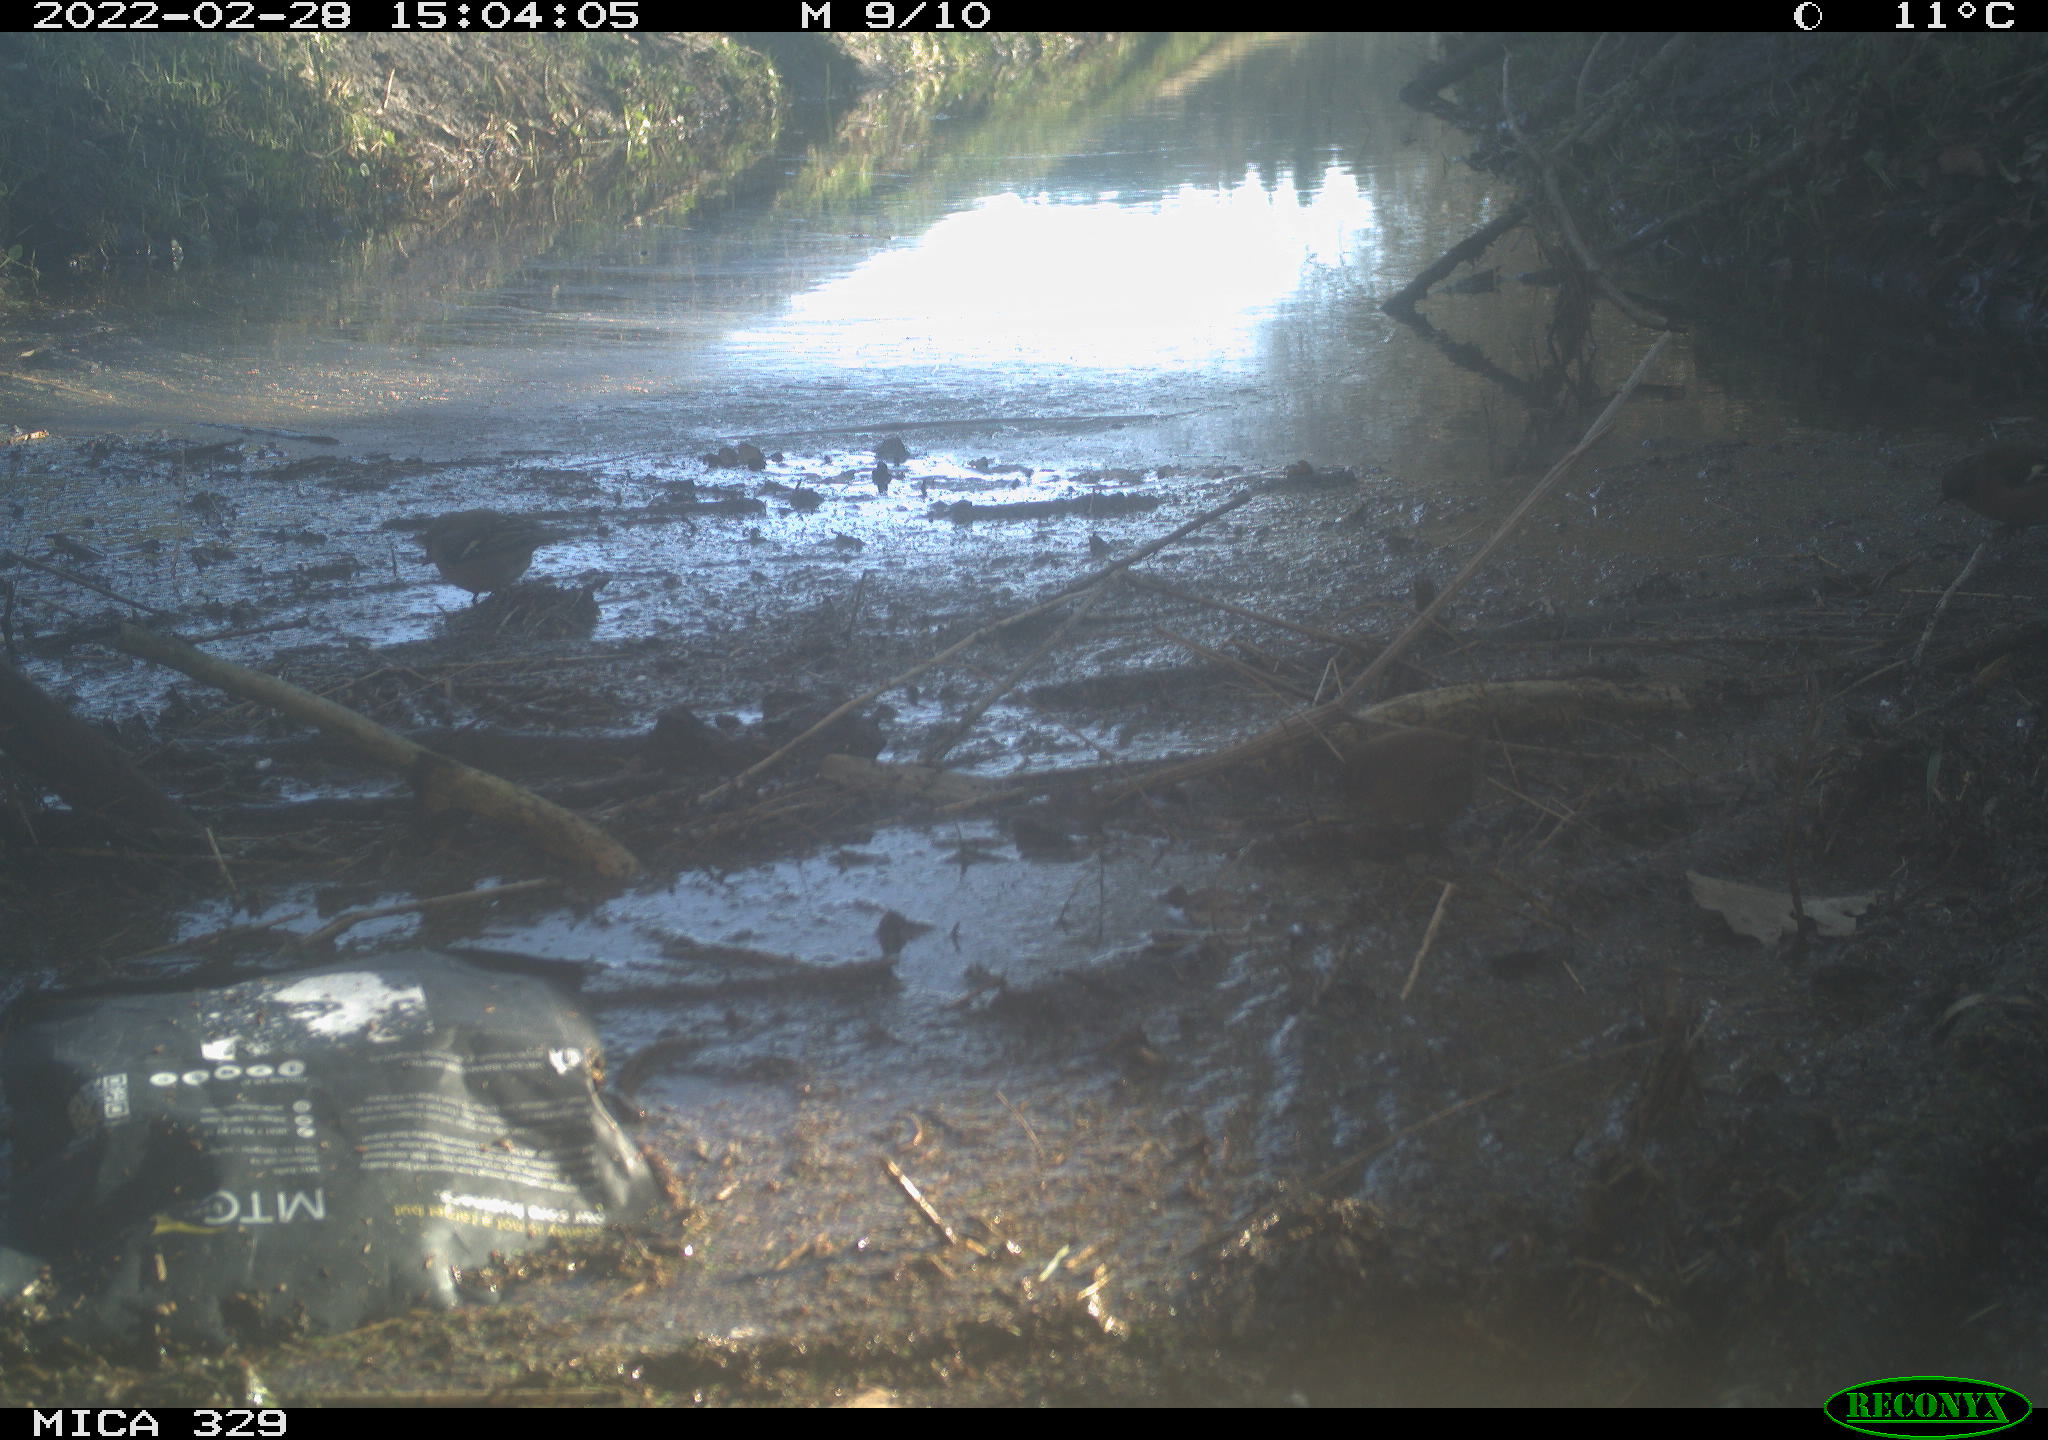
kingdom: Animalia
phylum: Chordata
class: Aves
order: Passeriformes
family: Troglodytidae
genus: Troglodytes
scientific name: Troglodytes troglodytes
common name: Eurasian wren
